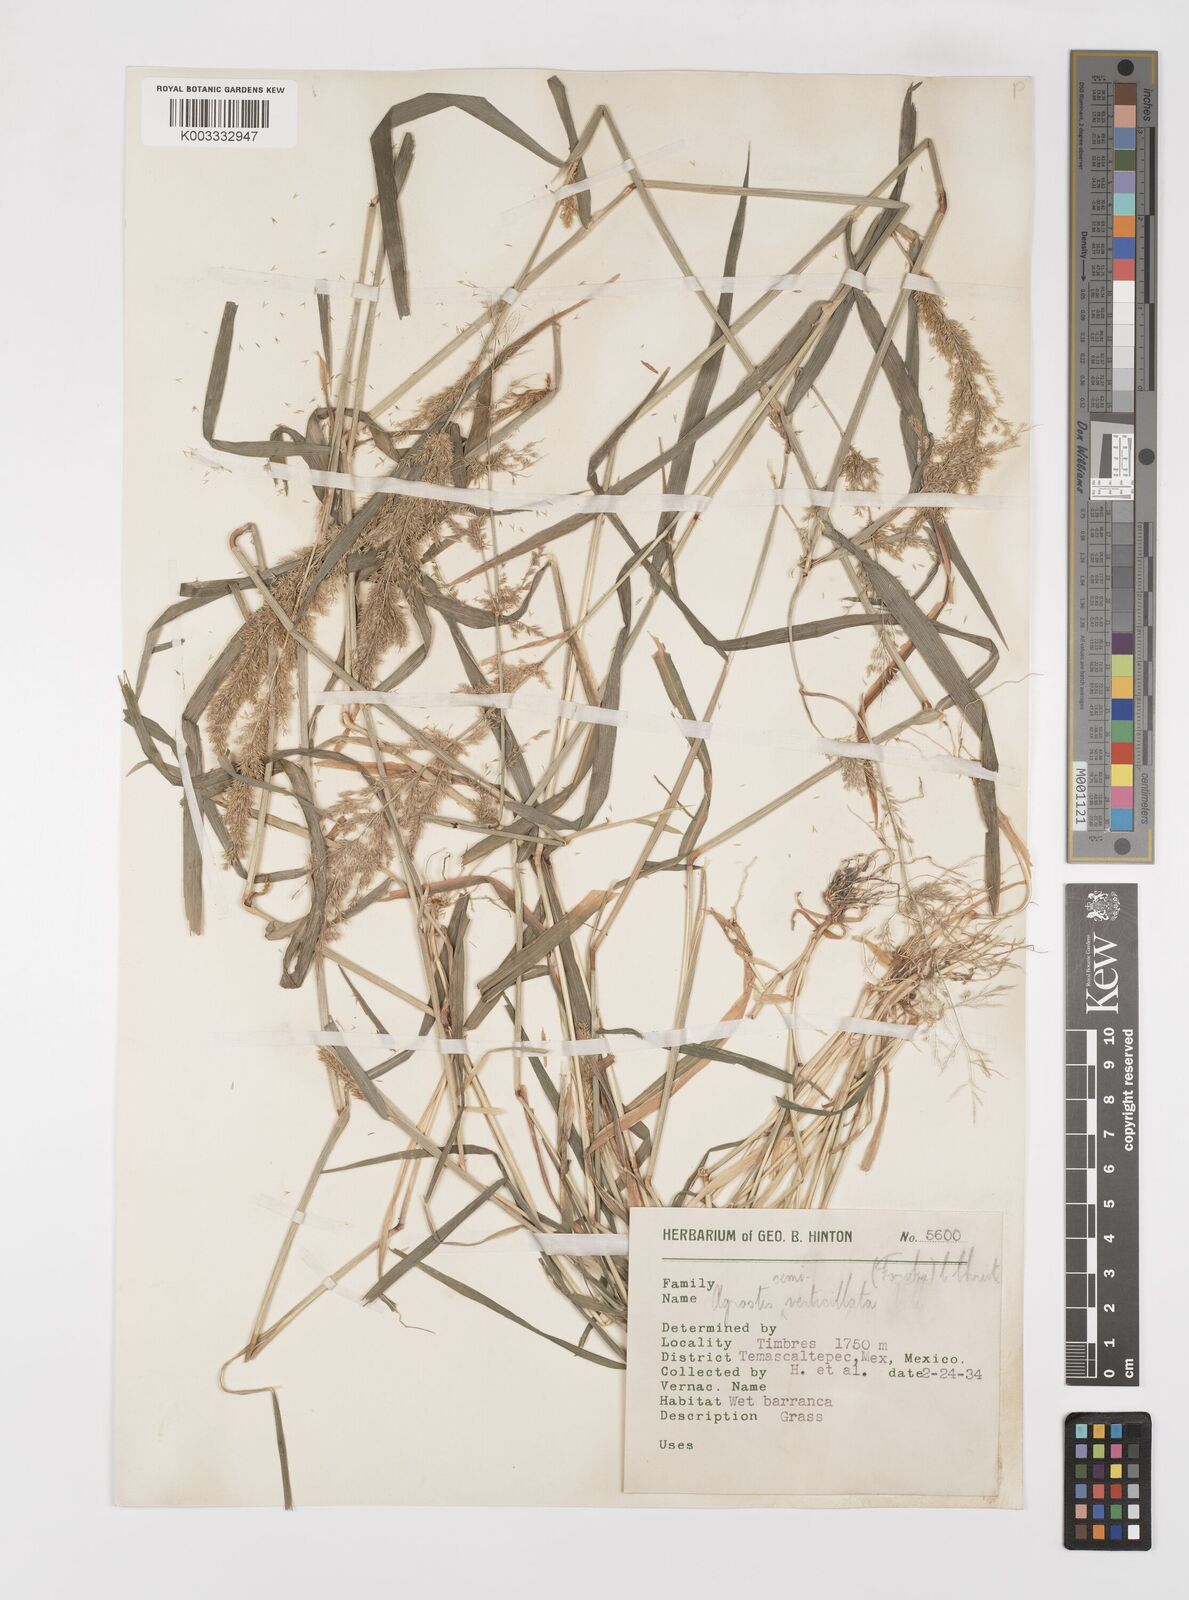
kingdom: Plantae
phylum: Tracheophyta
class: Liliopsida
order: Poales
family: Poaceae
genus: Polypogon
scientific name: Polypogon viridis
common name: Water bent
